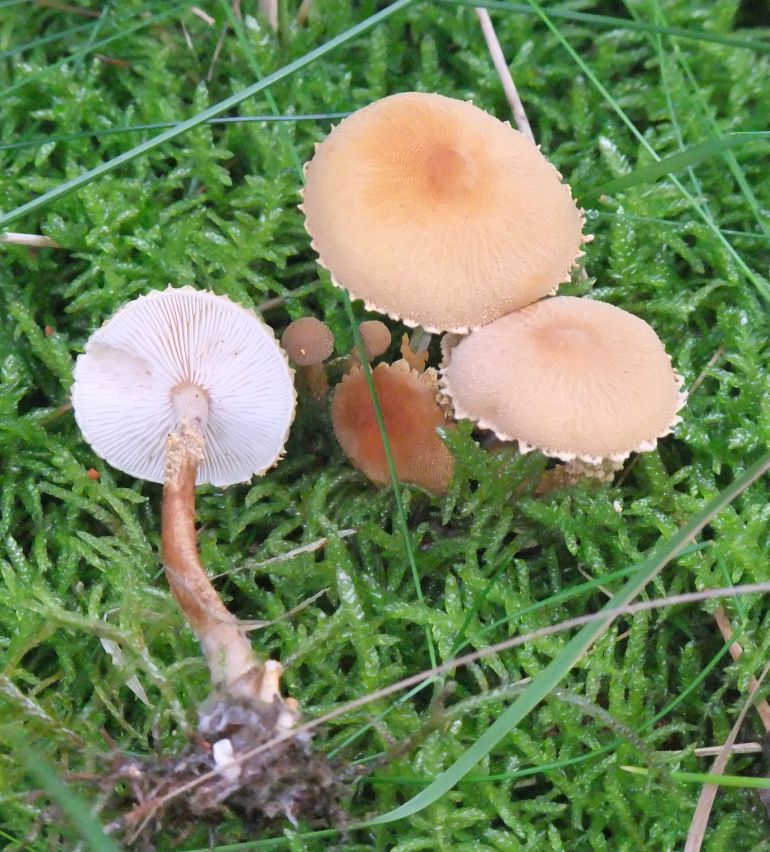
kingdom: Fungi
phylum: Basidiomycota
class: Agaricomycetes
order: Agaricales
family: Tricholomataceae
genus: Cystoderma
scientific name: Cystoderma amianthinum
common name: okkergul grynhat
